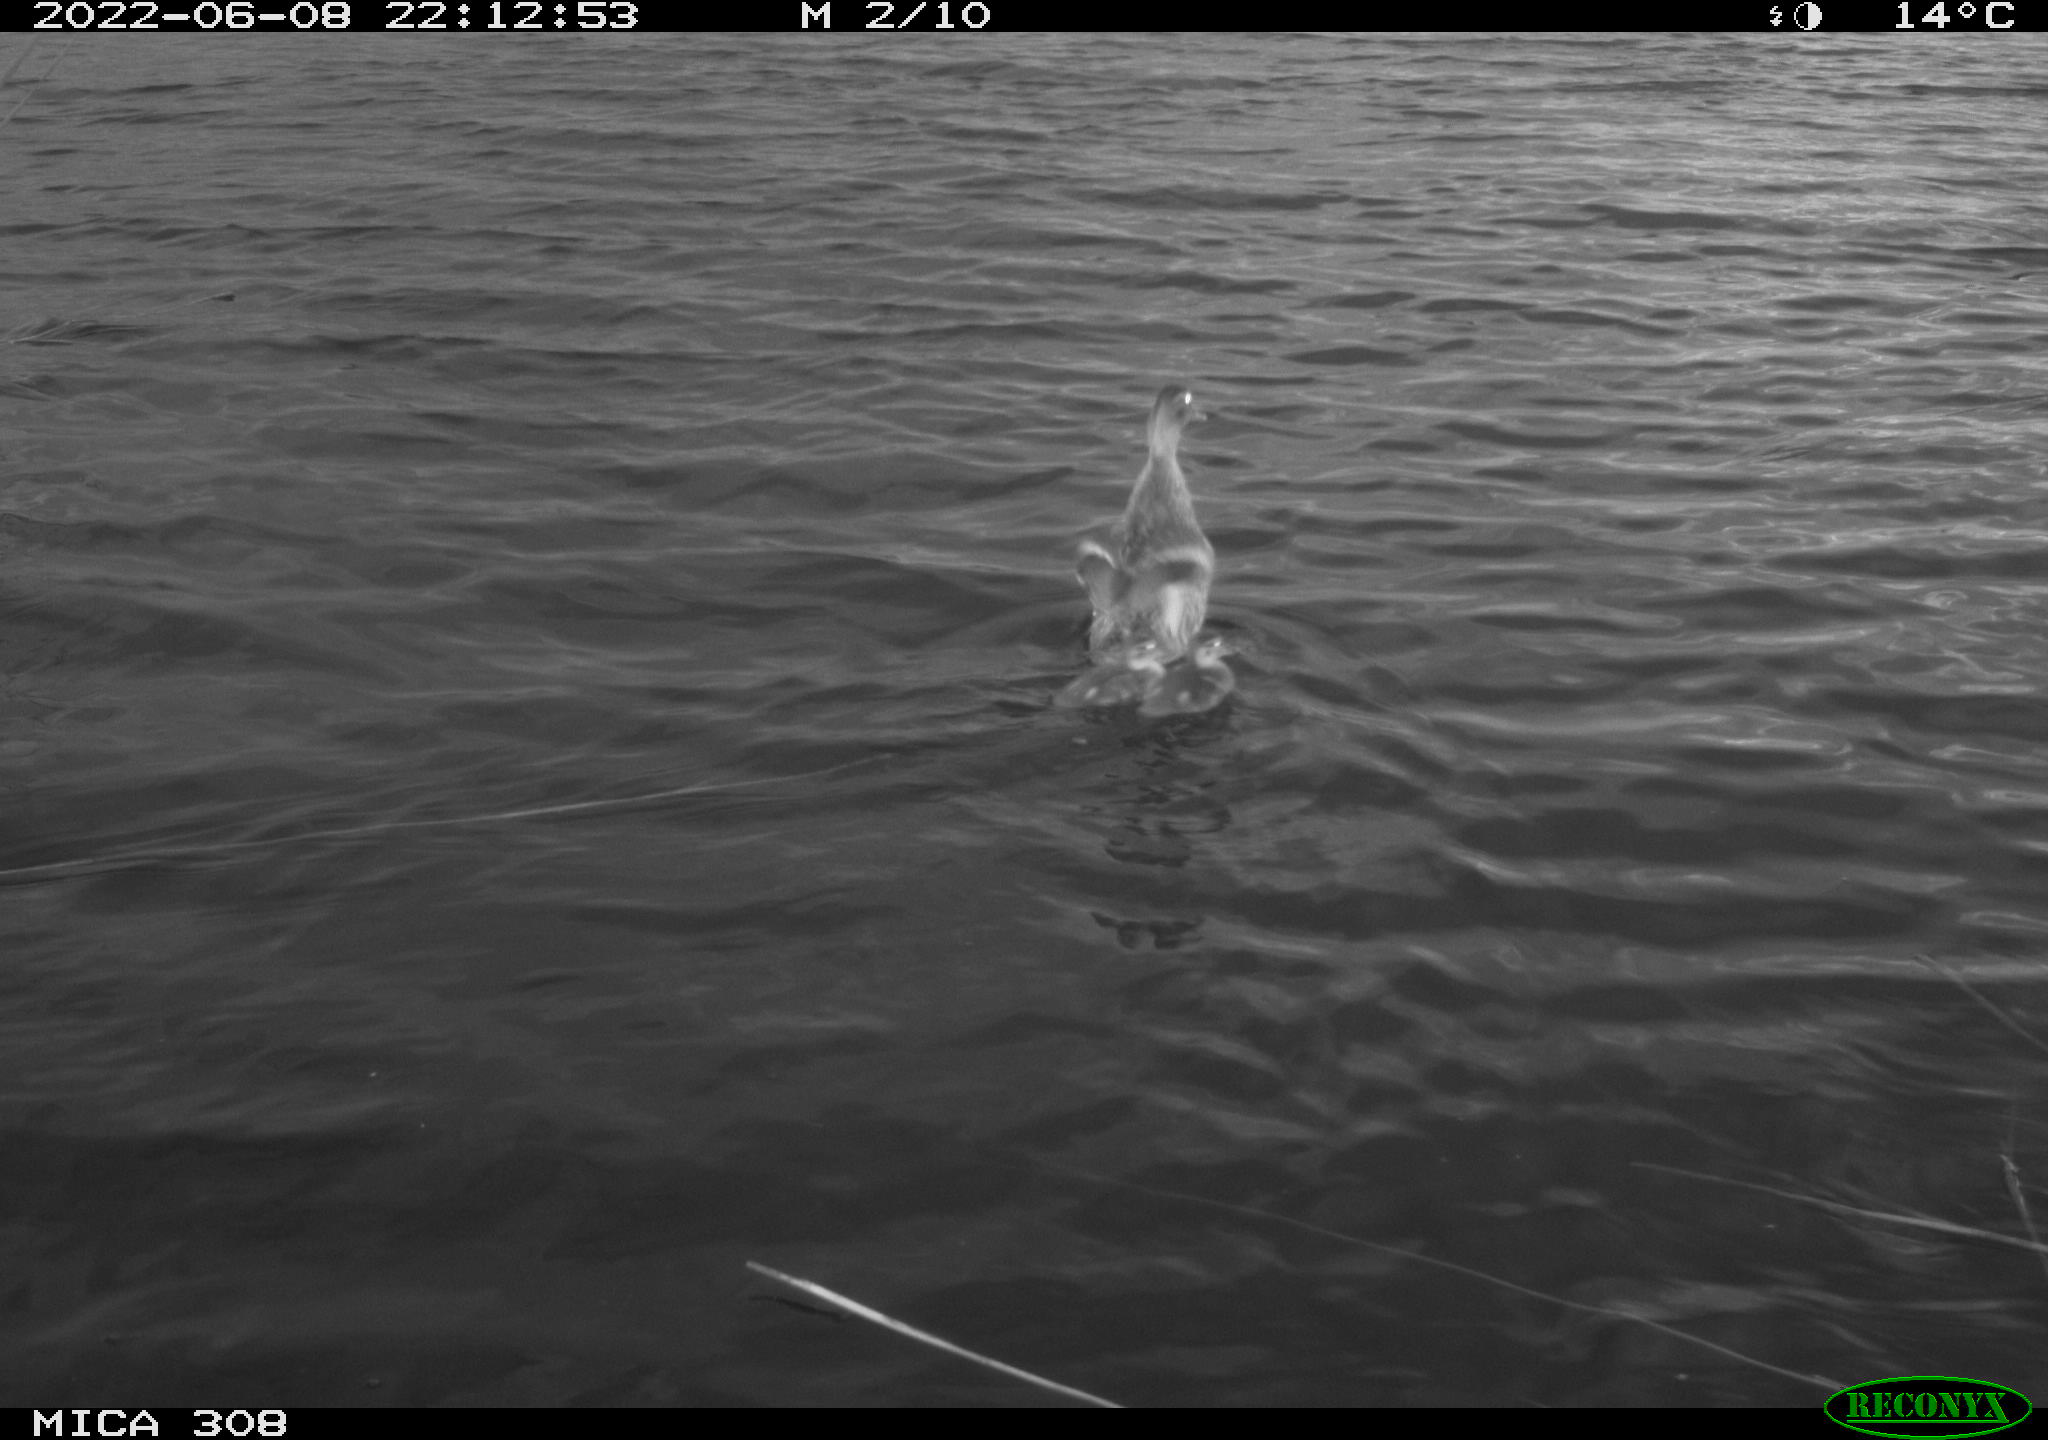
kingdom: Animalia
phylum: Chordata
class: Aves
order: Anseriformes
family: Anatidae
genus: Anas
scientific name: Anas platyrhynchos
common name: Mallard
